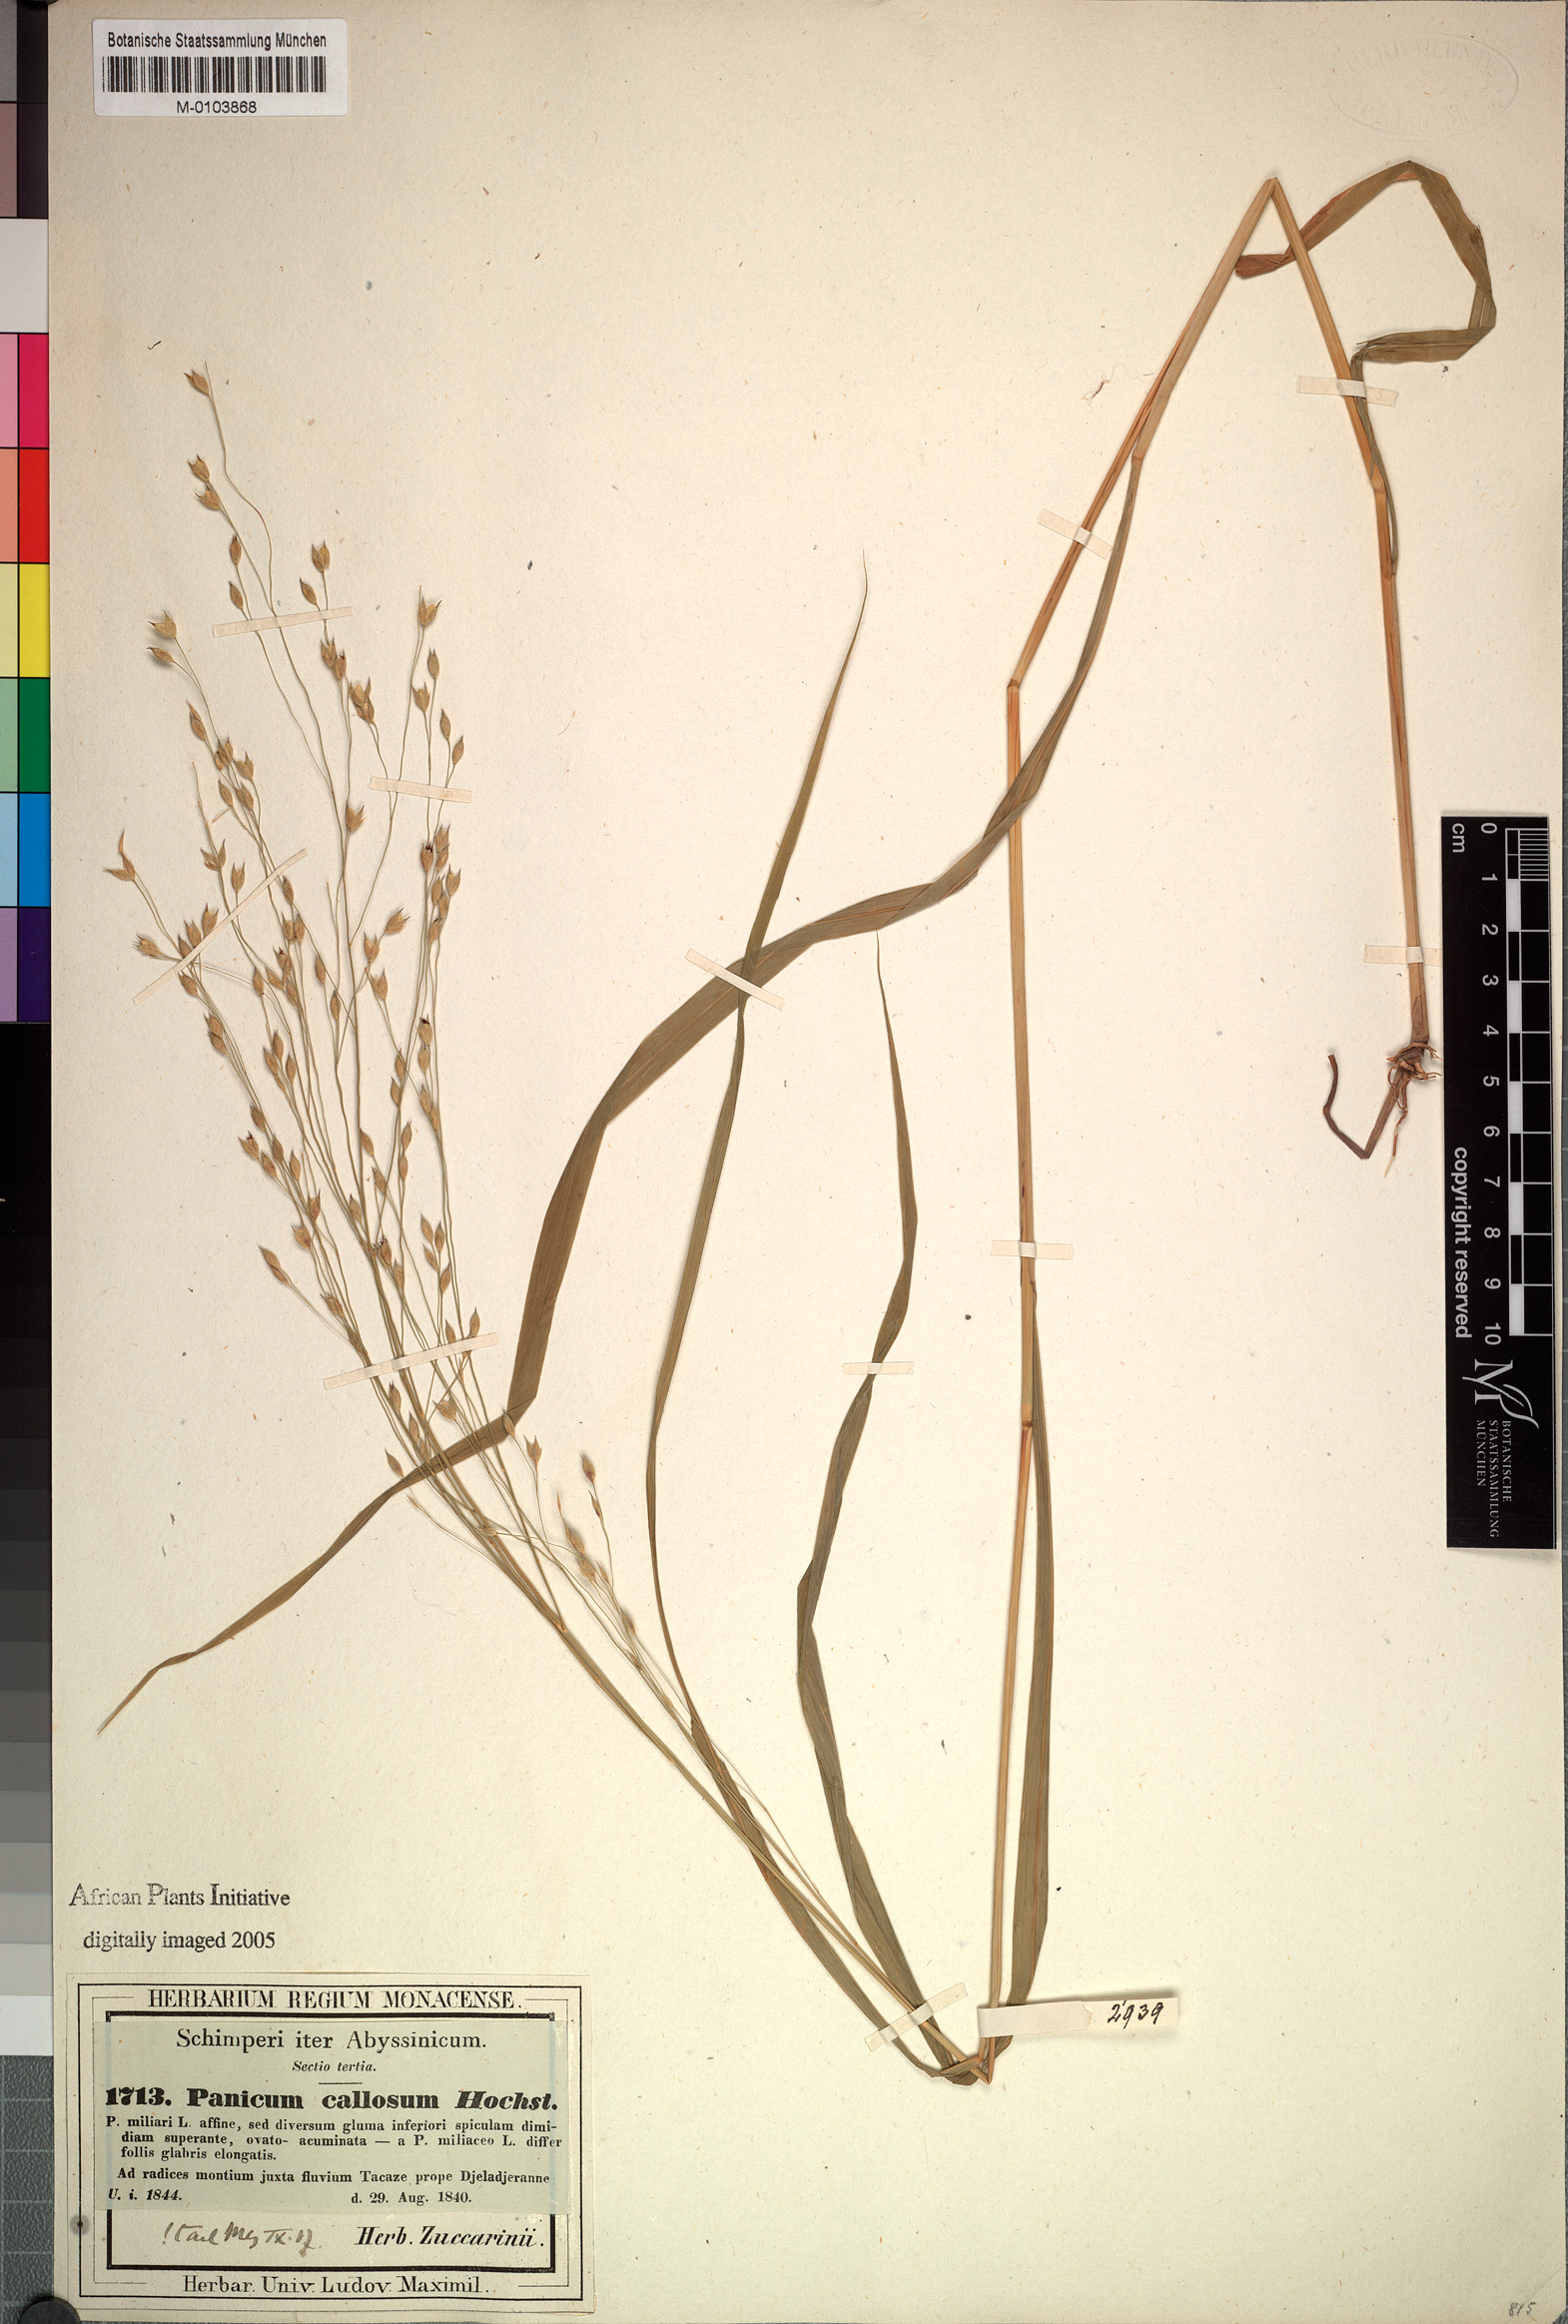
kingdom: Plantae
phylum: Tracheophyta
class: Liliopsida
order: Poales
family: Poaceae
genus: Panicum
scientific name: Panicum callosum
